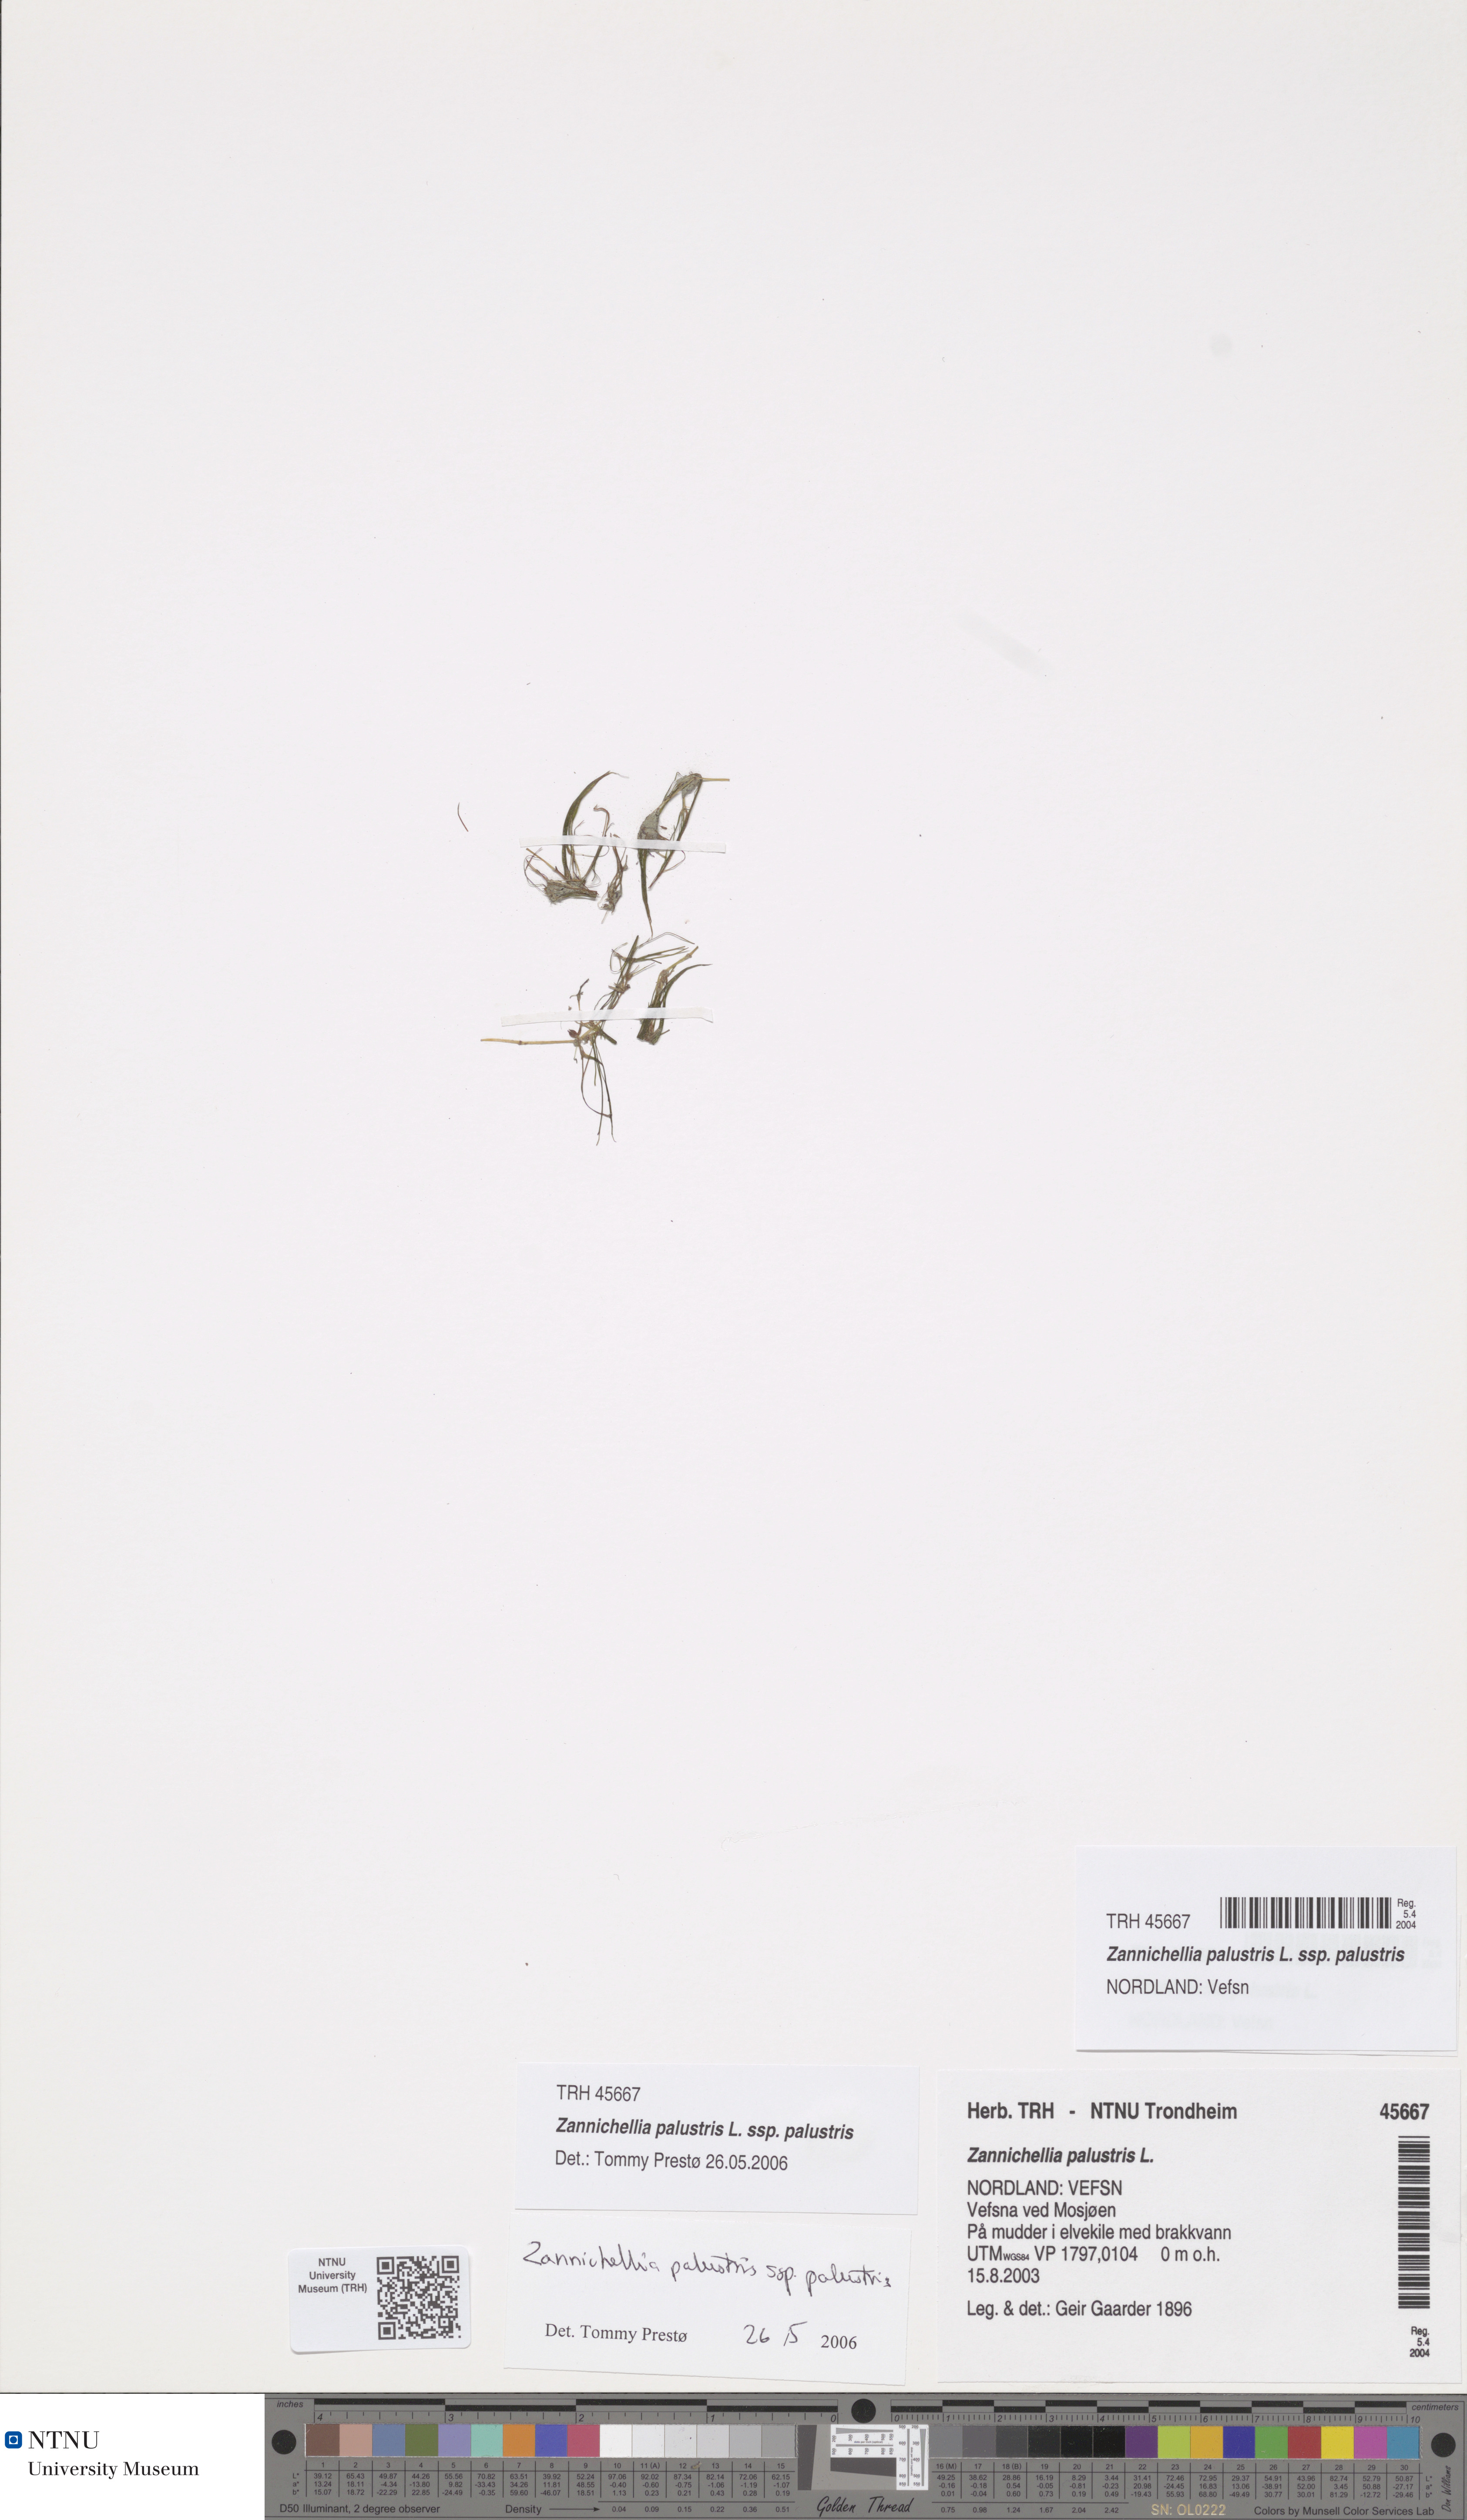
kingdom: Plantae
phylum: Tracheophyta
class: Liliopsida
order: Alismatales
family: Potamogetonaceae
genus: Zannichellia
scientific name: Zannichellia palustris
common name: Horned pondweed
